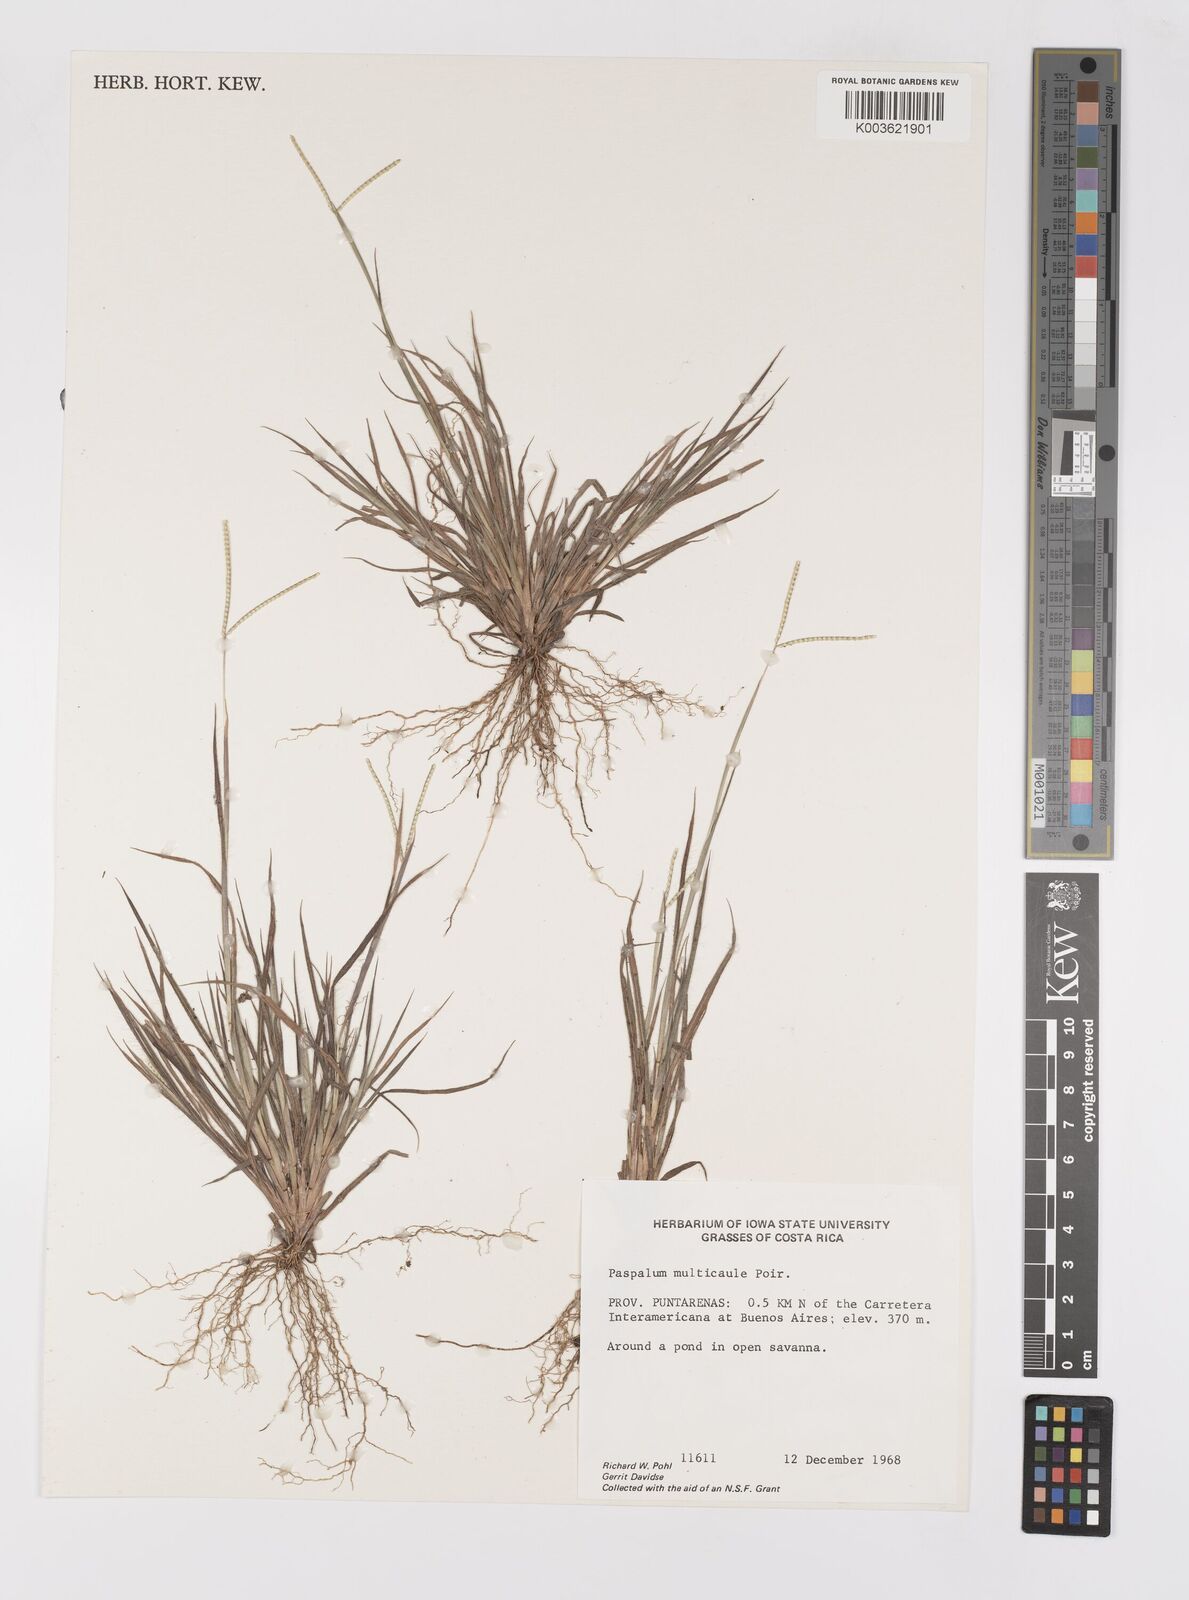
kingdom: Plantae
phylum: Tracheophyta
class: Liliopsida
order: Poales
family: Poaceae
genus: Paspalum
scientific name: Paspalum multicaule
